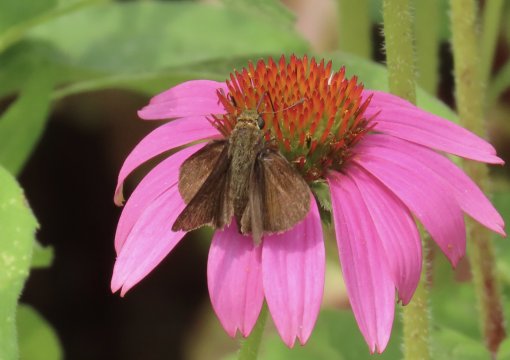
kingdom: Animalia
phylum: Arthropoda
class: Insecta
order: Lepidoptera
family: Hesperiidae
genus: Euphyes
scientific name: Euphyes vestris
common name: Dun Skipper
